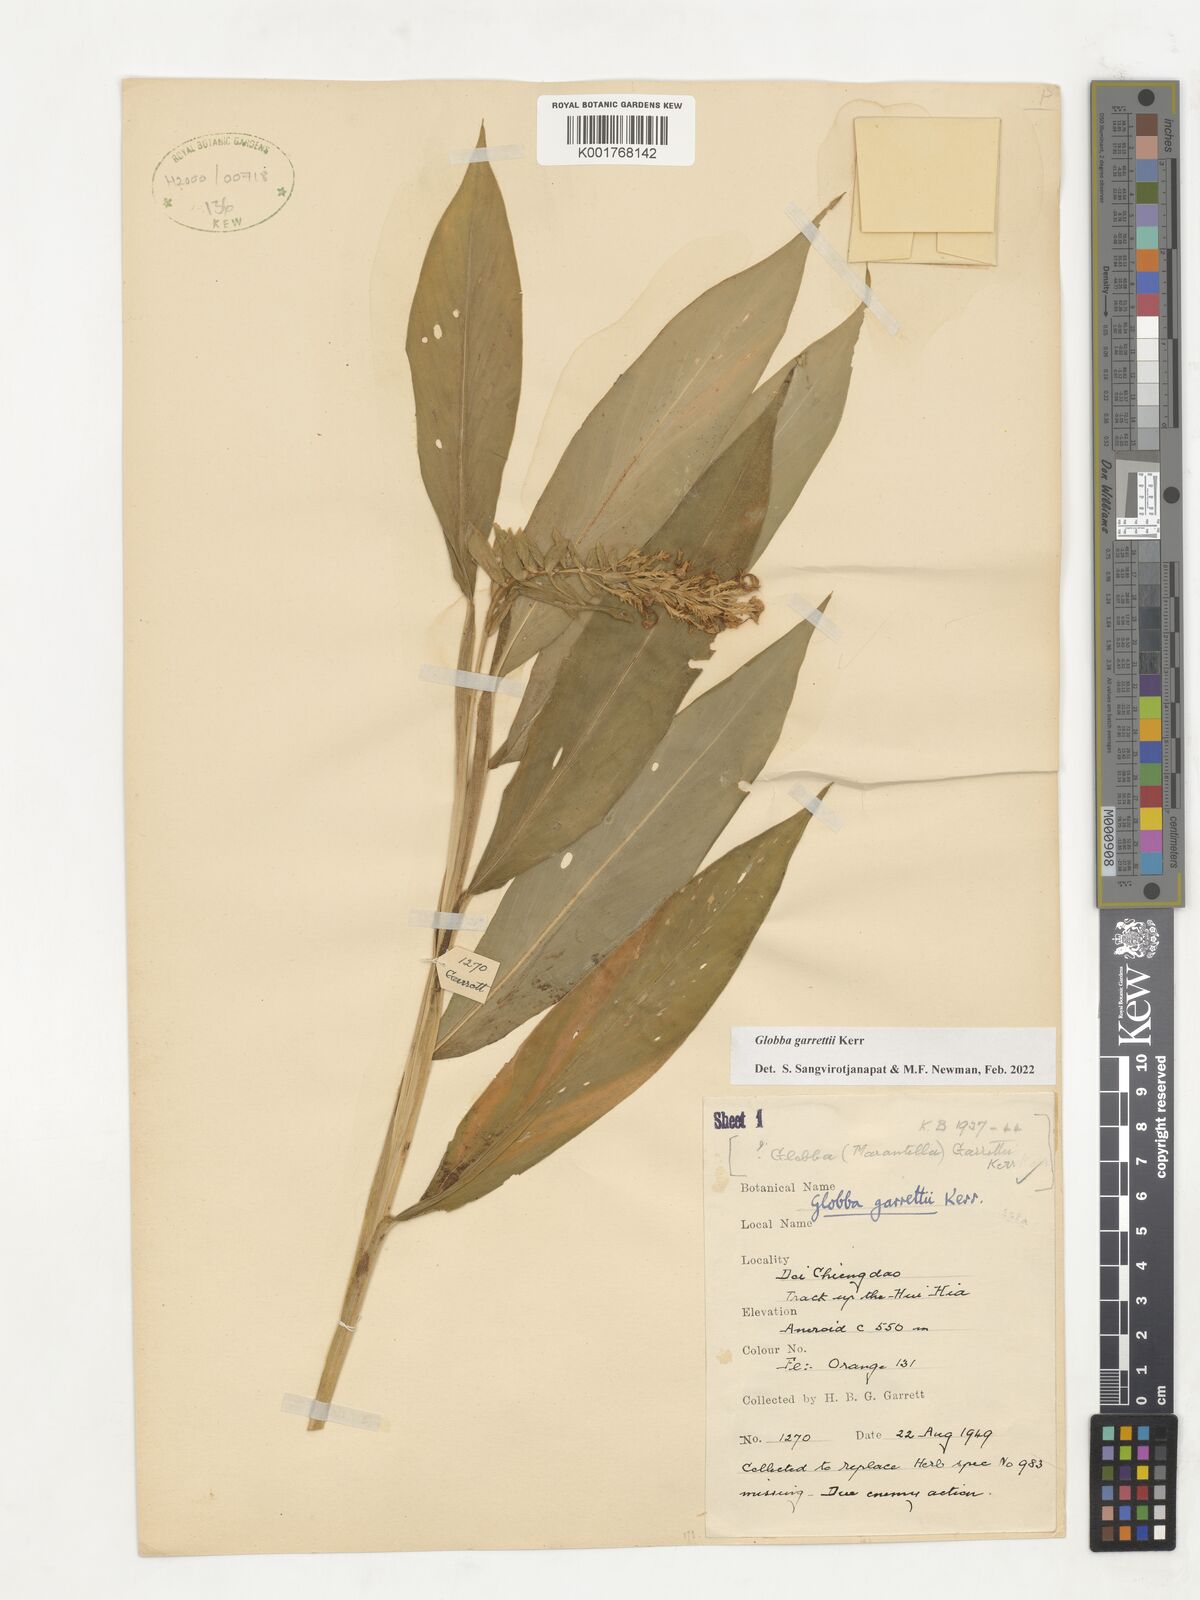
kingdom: Plantae
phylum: Tracheophyta
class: Liliopsida
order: Zingiberales
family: Zingiberaceae
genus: Globba
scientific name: Globba garrettii
